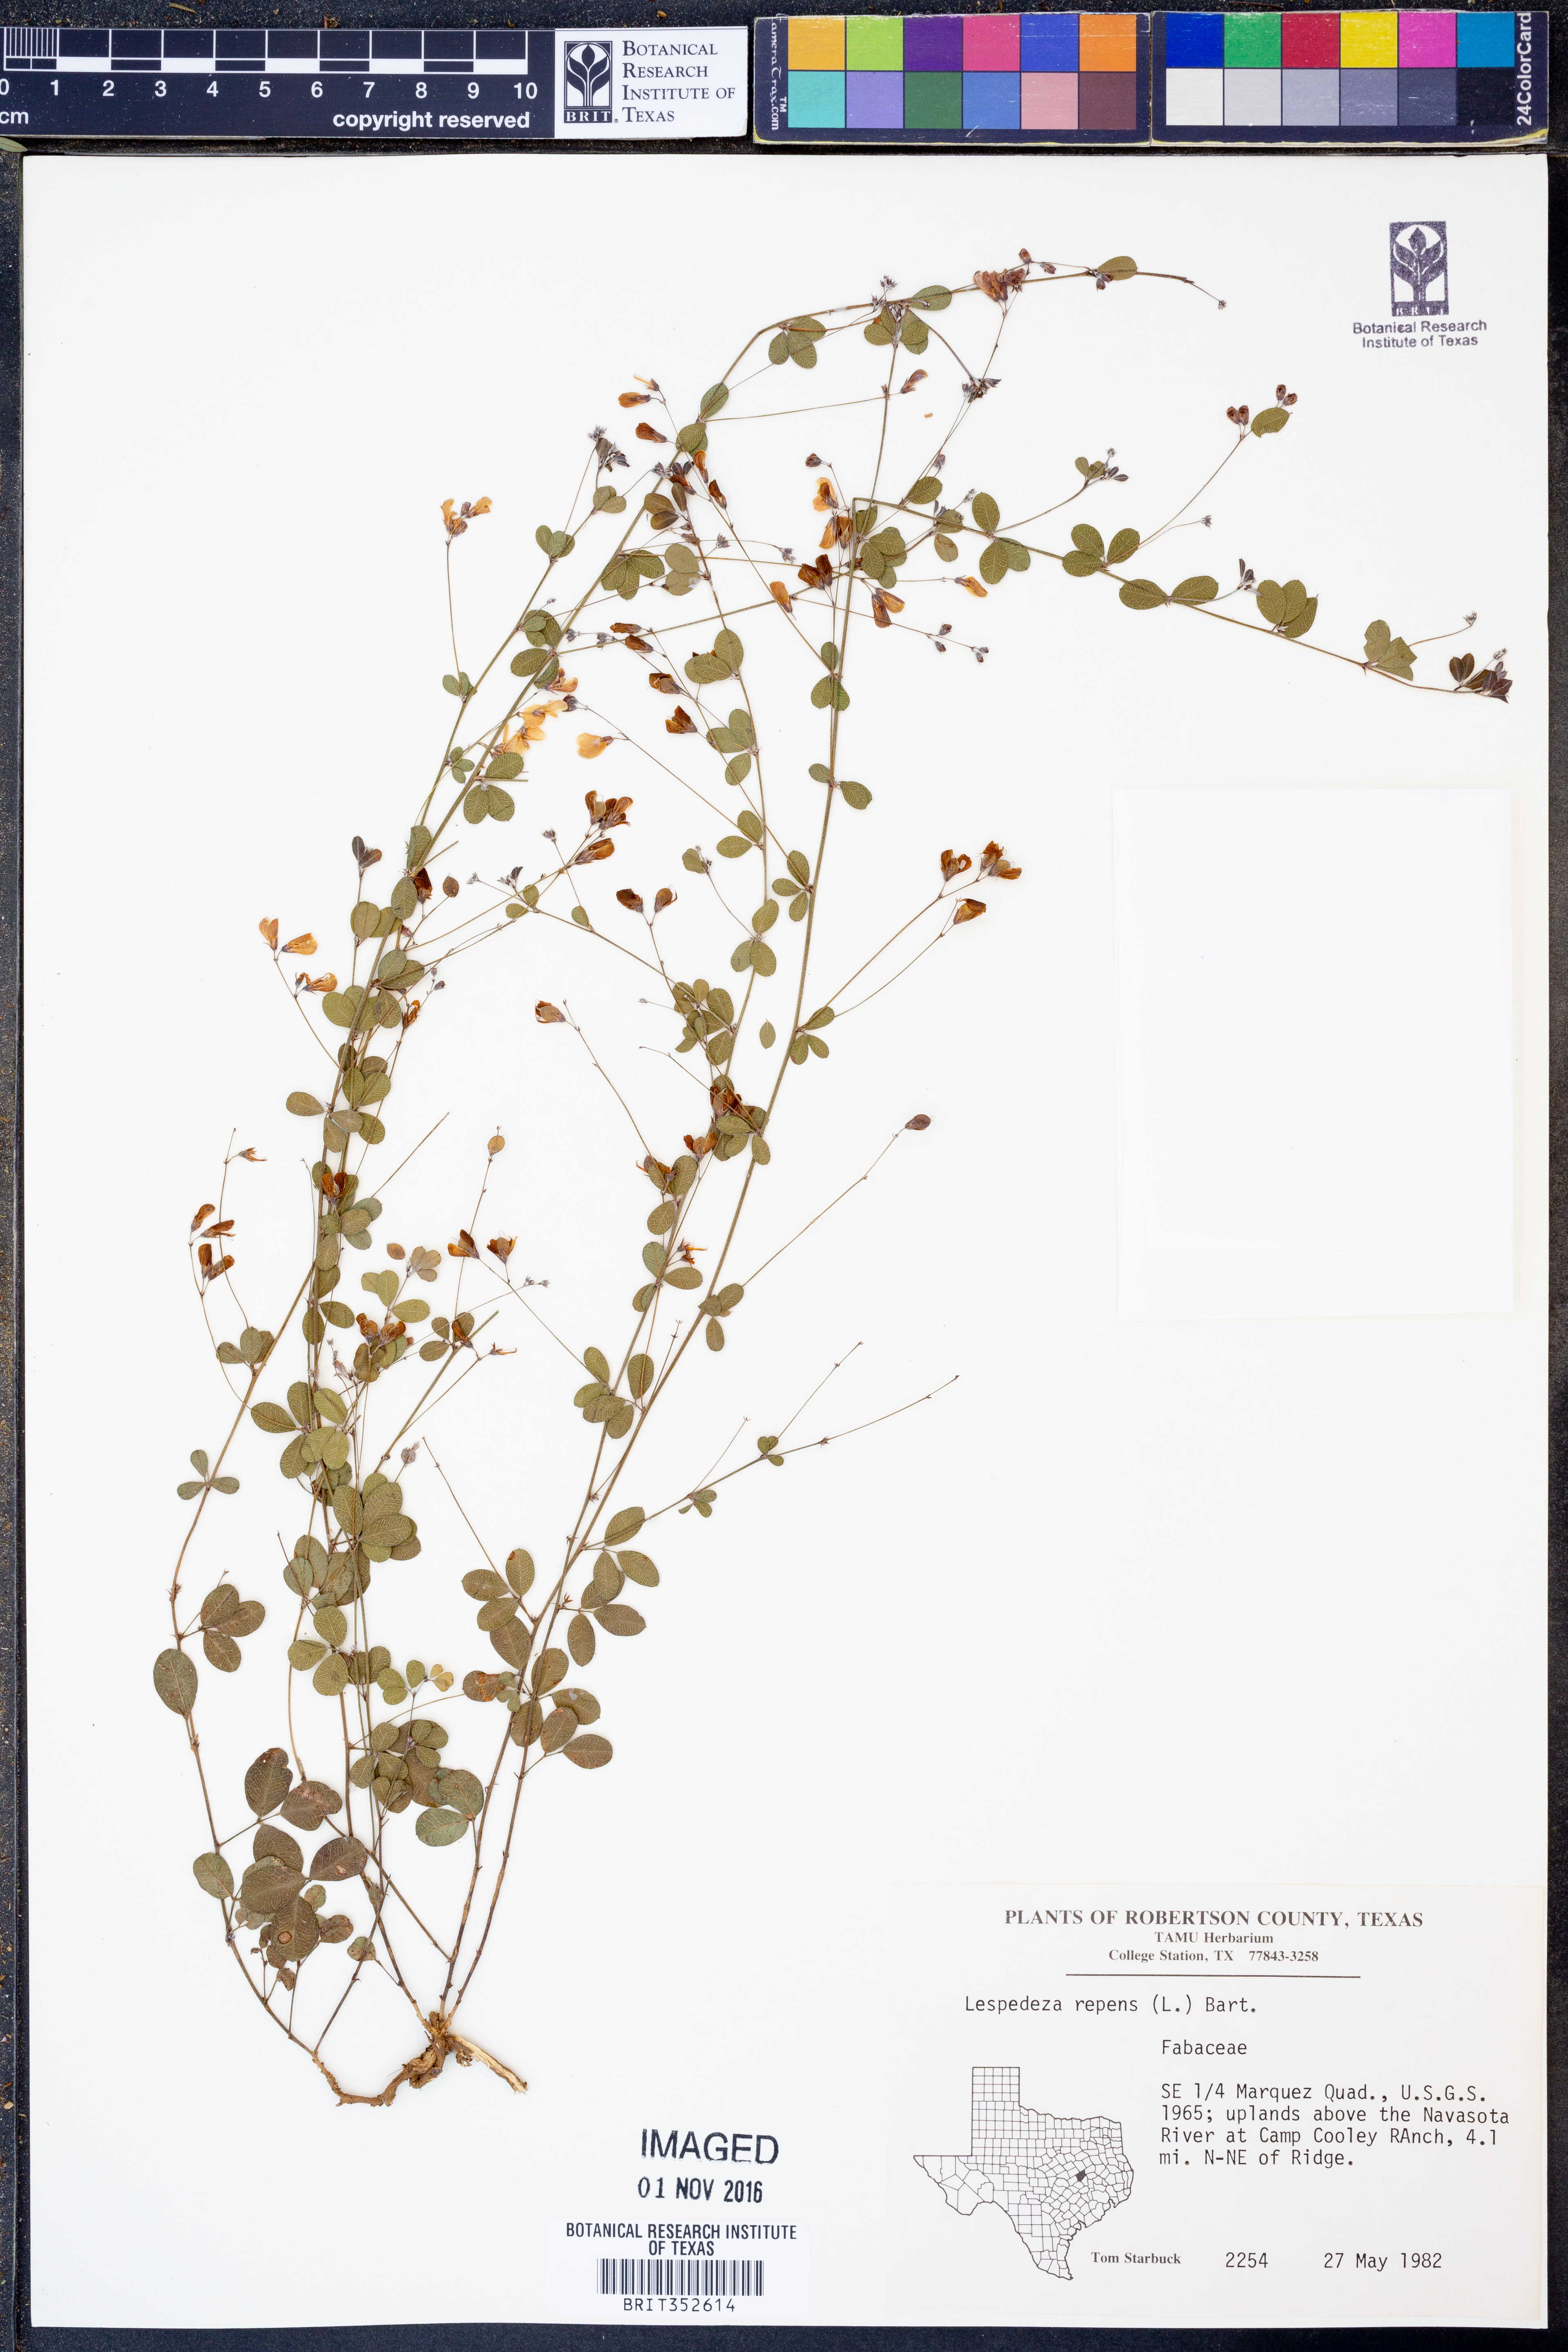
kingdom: Plantae
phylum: Tracheophyta
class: Magnoliopsida
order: Fabales
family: Fabaceae
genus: Lespedeza
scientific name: Lespedeza repens
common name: Creeping bush-clover
